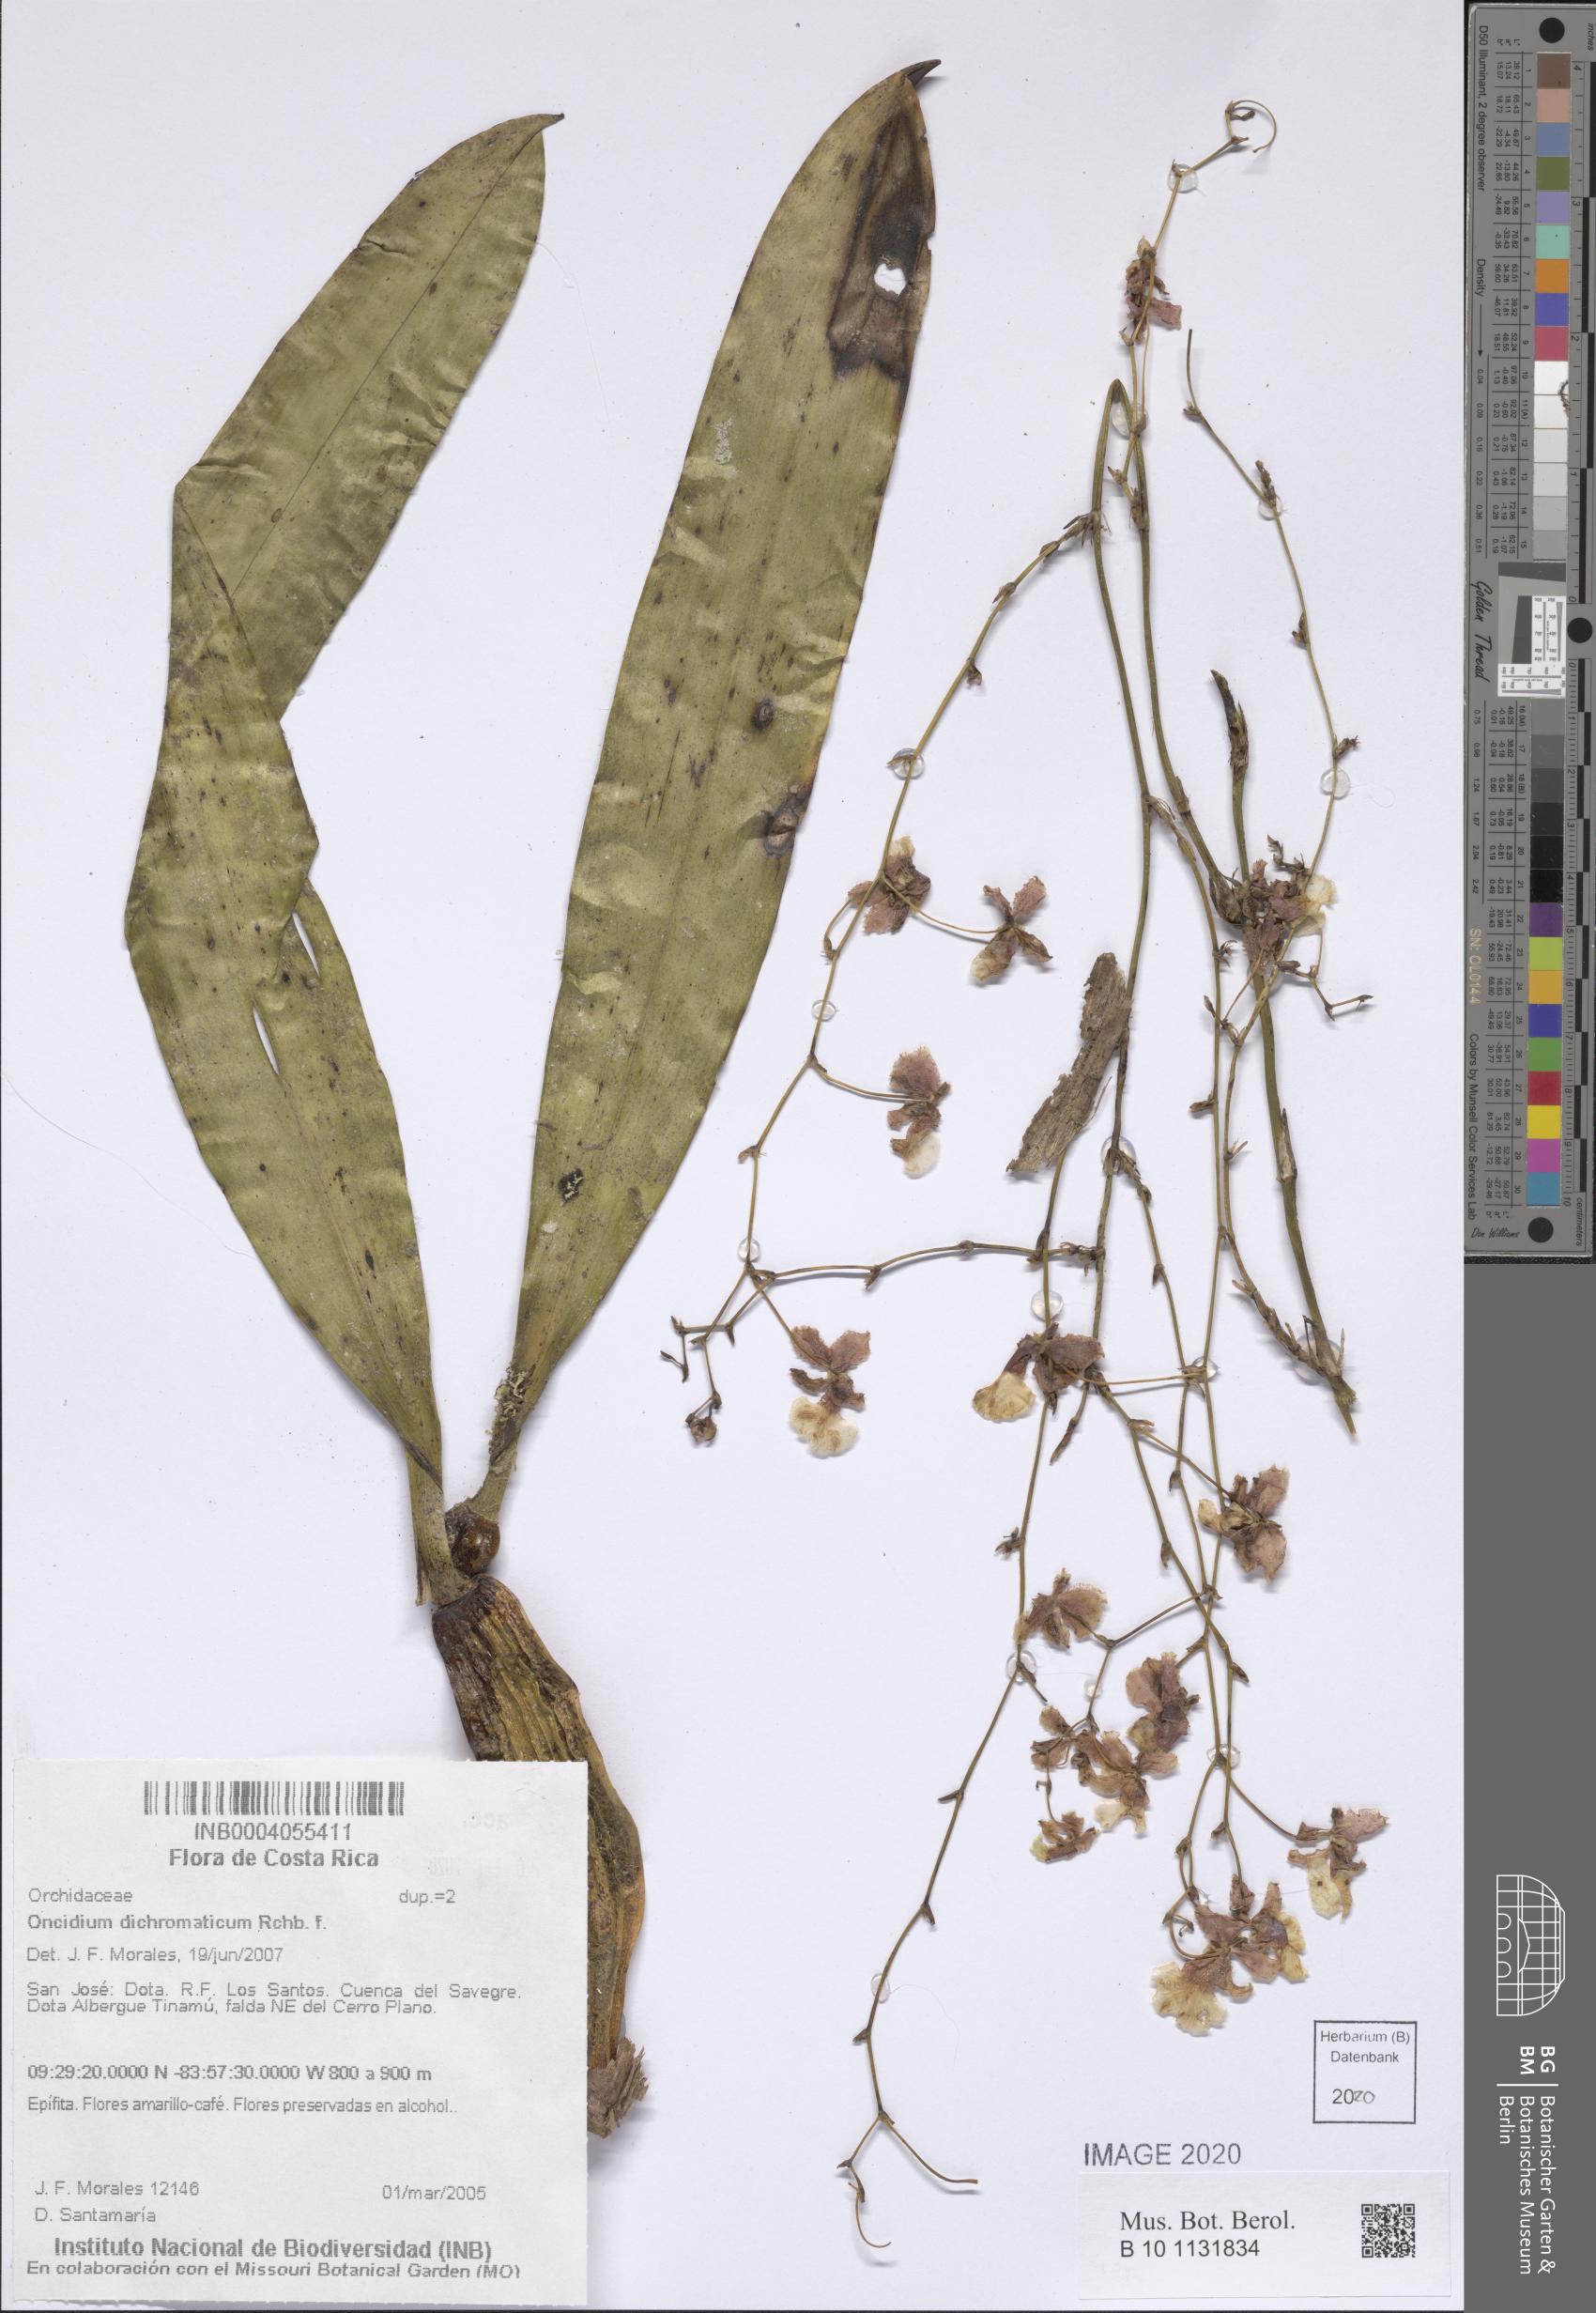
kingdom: Plantae
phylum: Tracheophyta
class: Liliopsida
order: Asparagales
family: Orchidaceae
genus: Oncidium
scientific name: Oncidium dichromaticum
